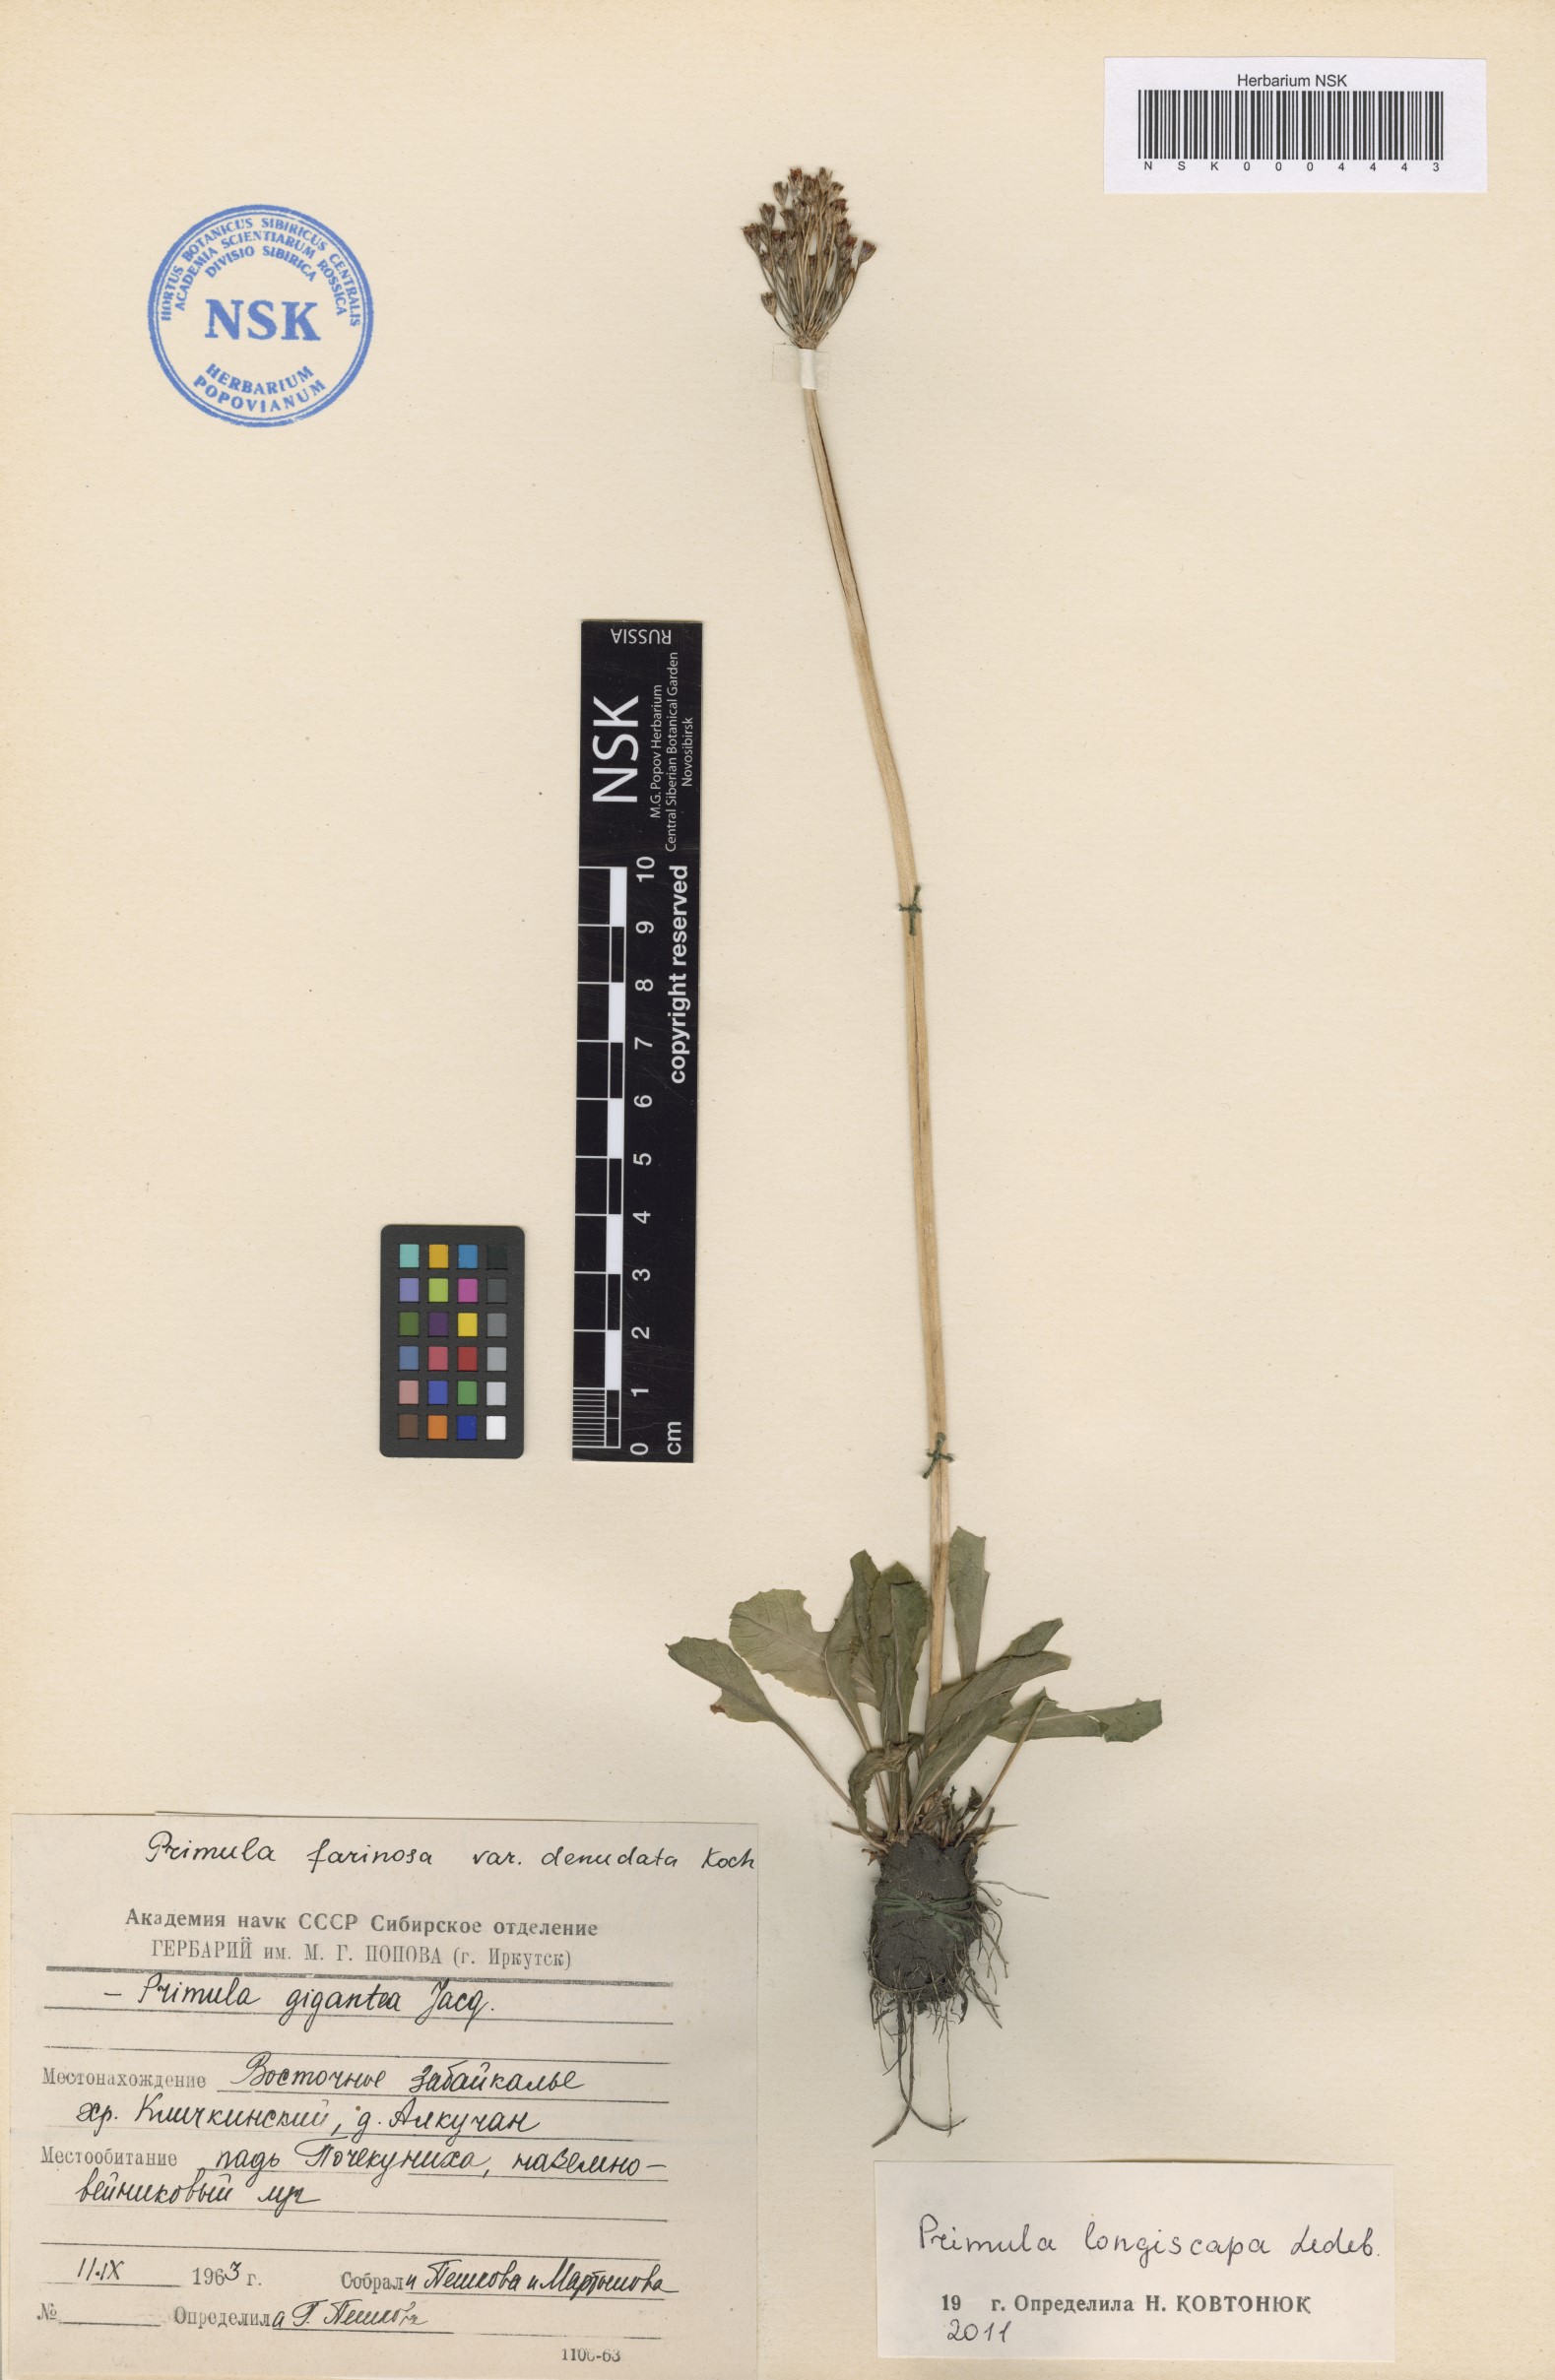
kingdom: Plantae
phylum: Tracheophyta
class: Magnoliopsida
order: Ericales
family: Primulaceae
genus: Primula
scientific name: Primula longiscapa
